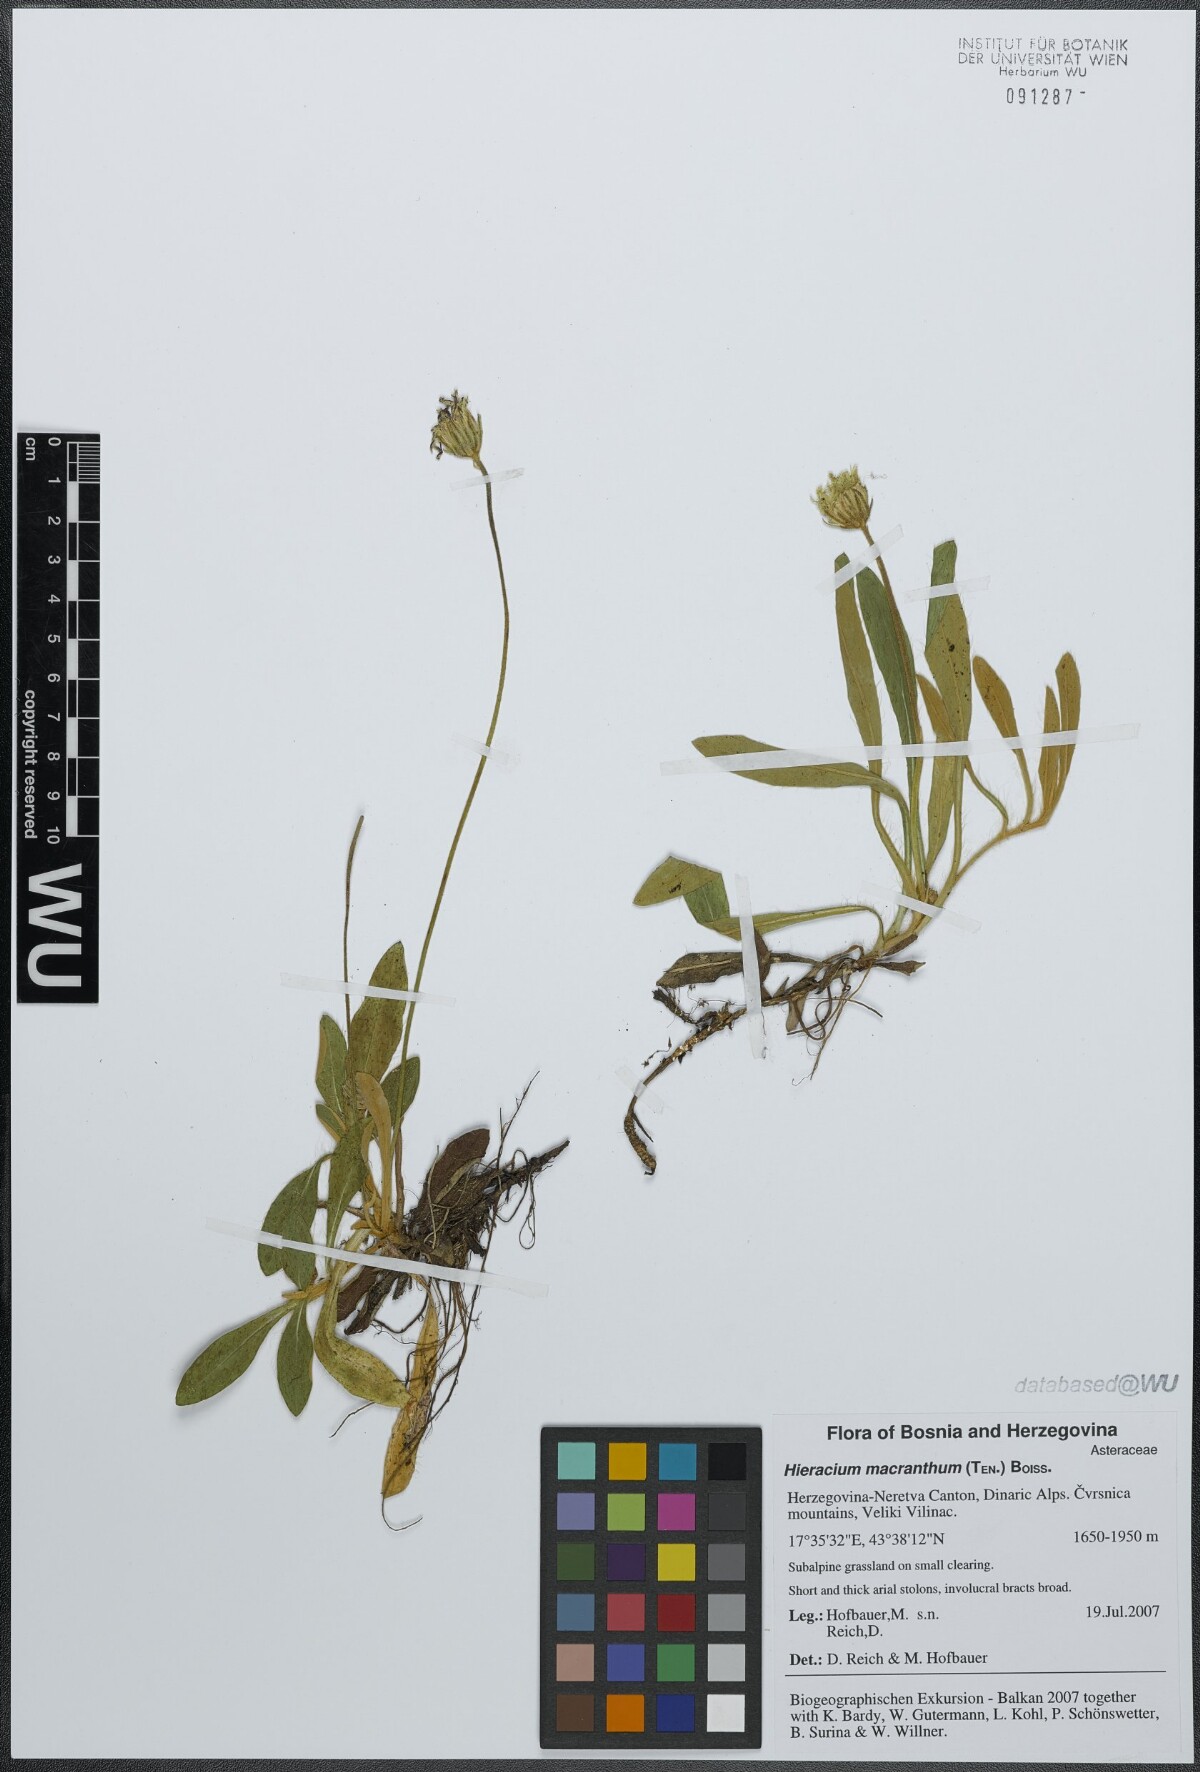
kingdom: Plantae
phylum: Tracheophyta
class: Magnoliopsida
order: Asterales
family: Asteraceae
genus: Pilosella
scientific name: Pilosella hoppeana
